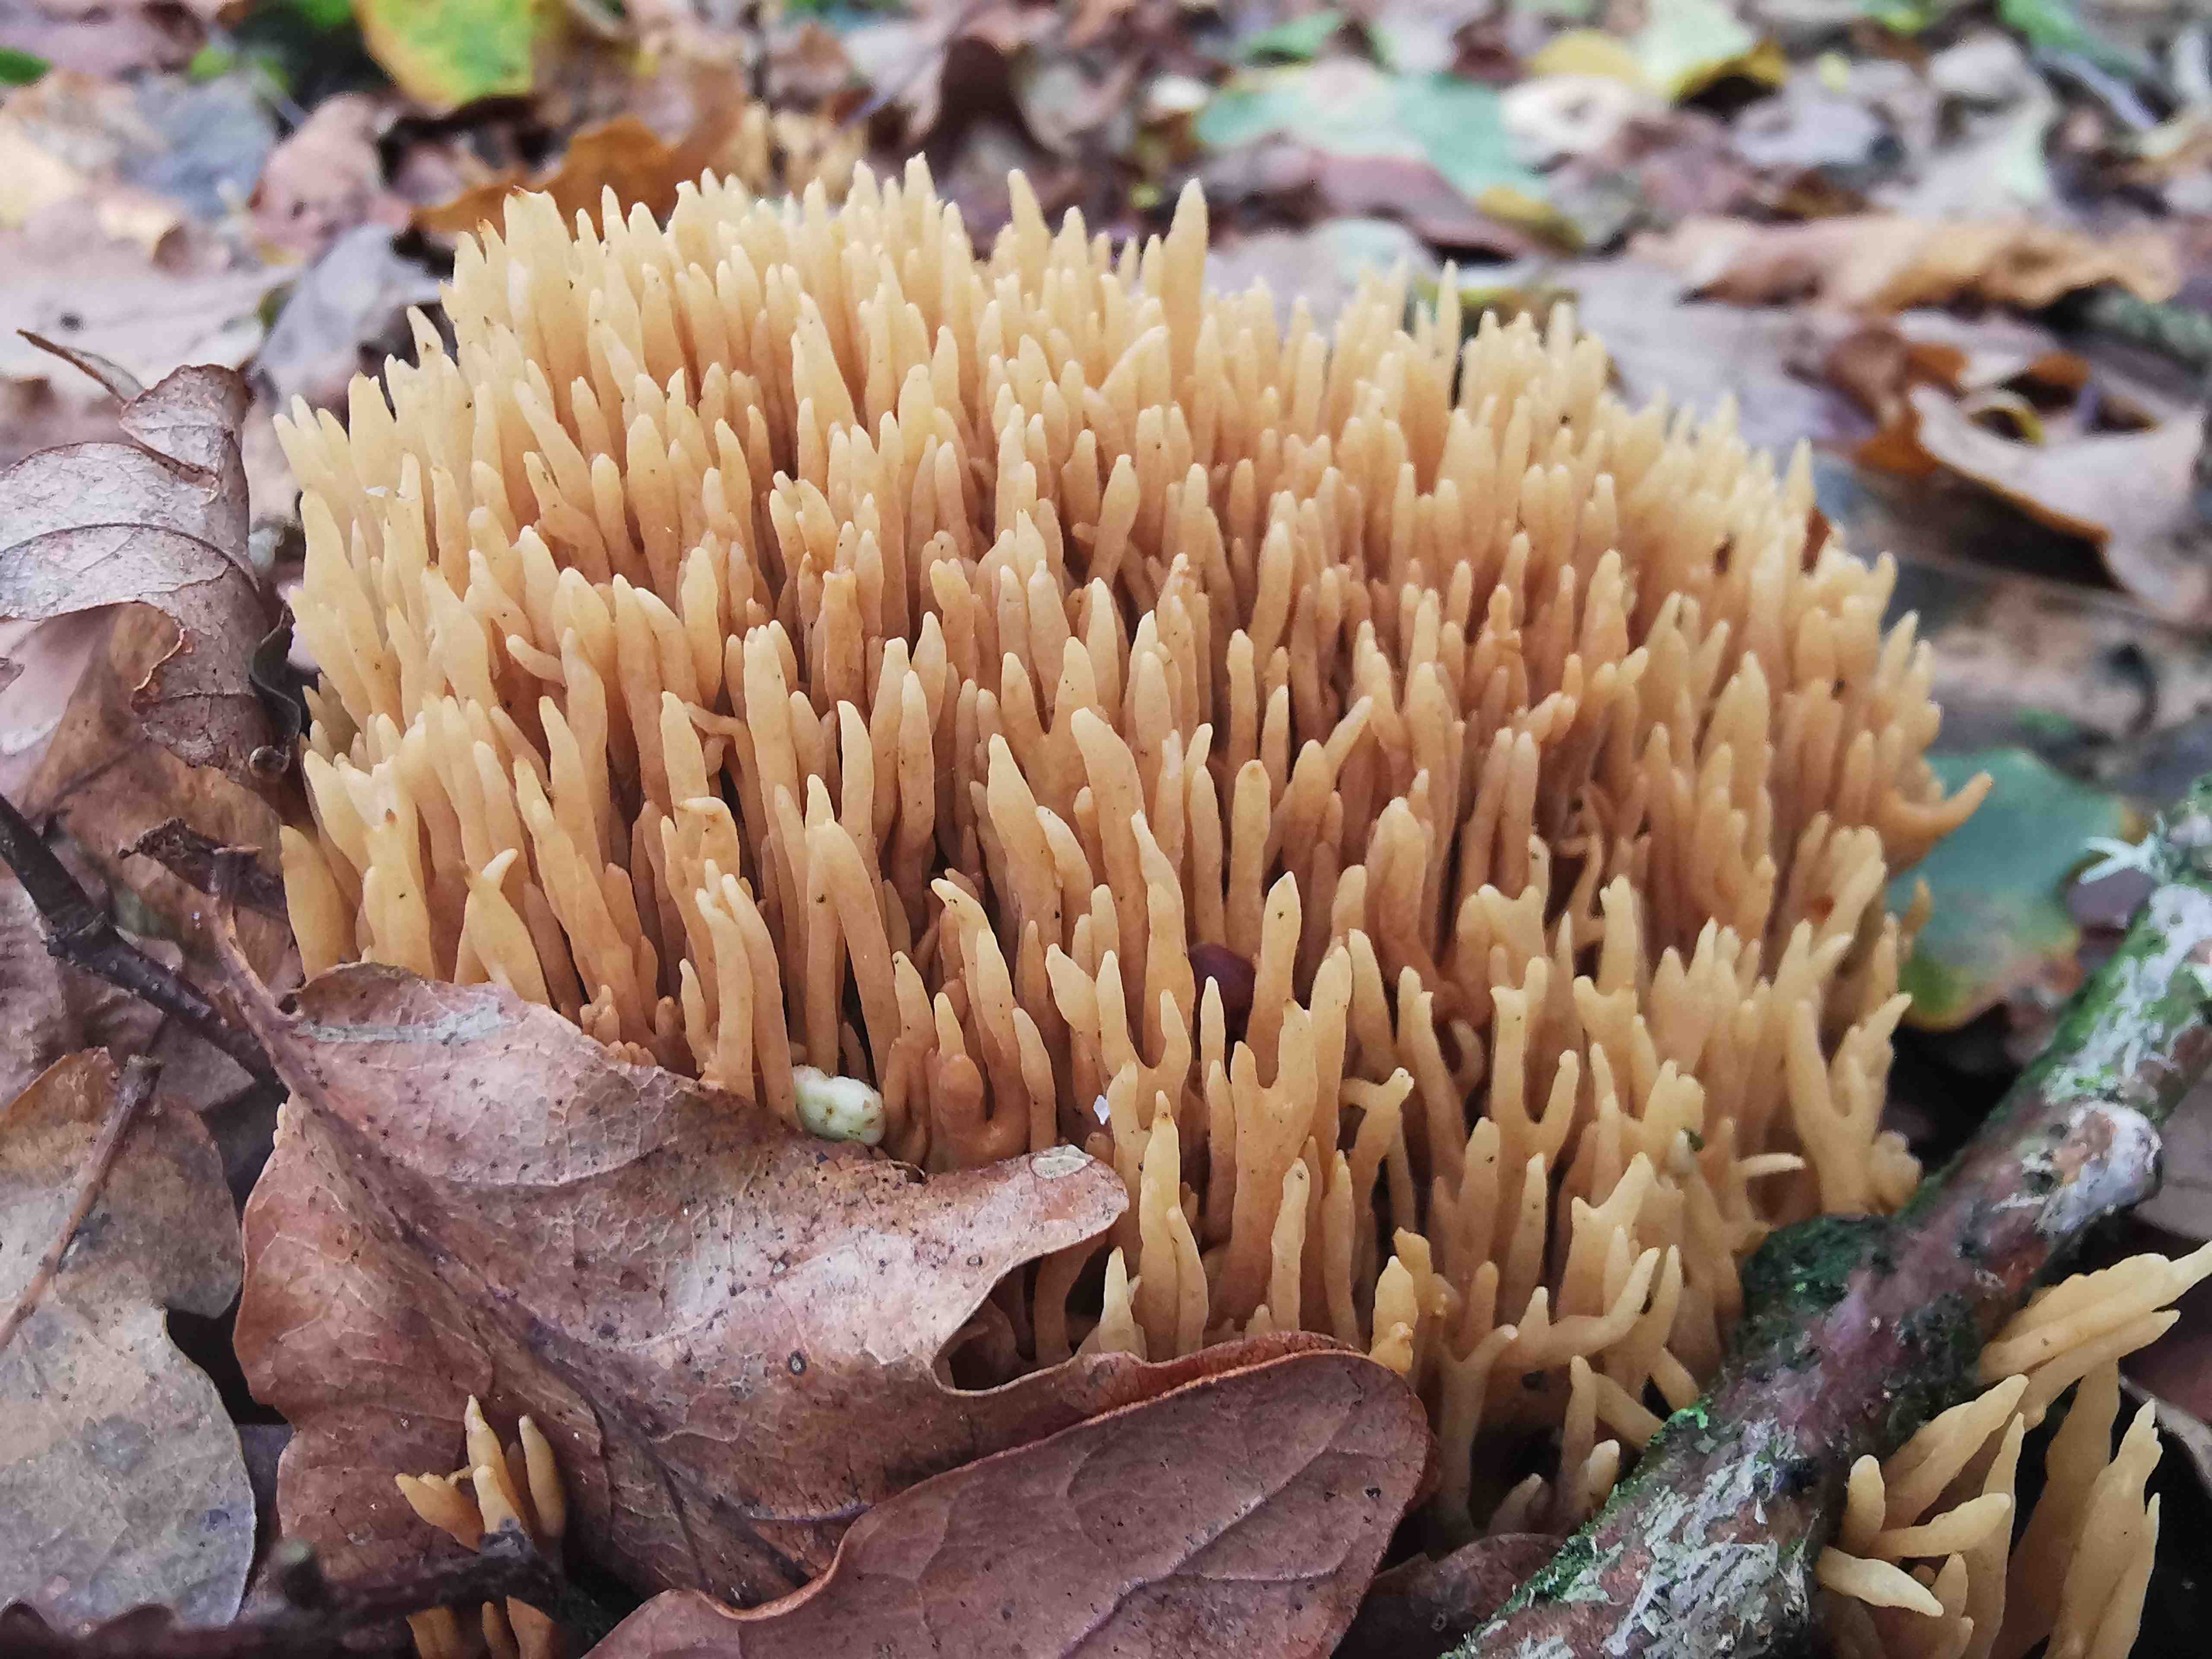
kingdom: Fungi
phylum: Basidiomycota
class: Agaricomycetes
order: Gomphales
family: Gomphaceae
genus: Phaeoclavulina
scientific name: Phaeoclavulina eumorpha
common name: gran-koralsvamp
